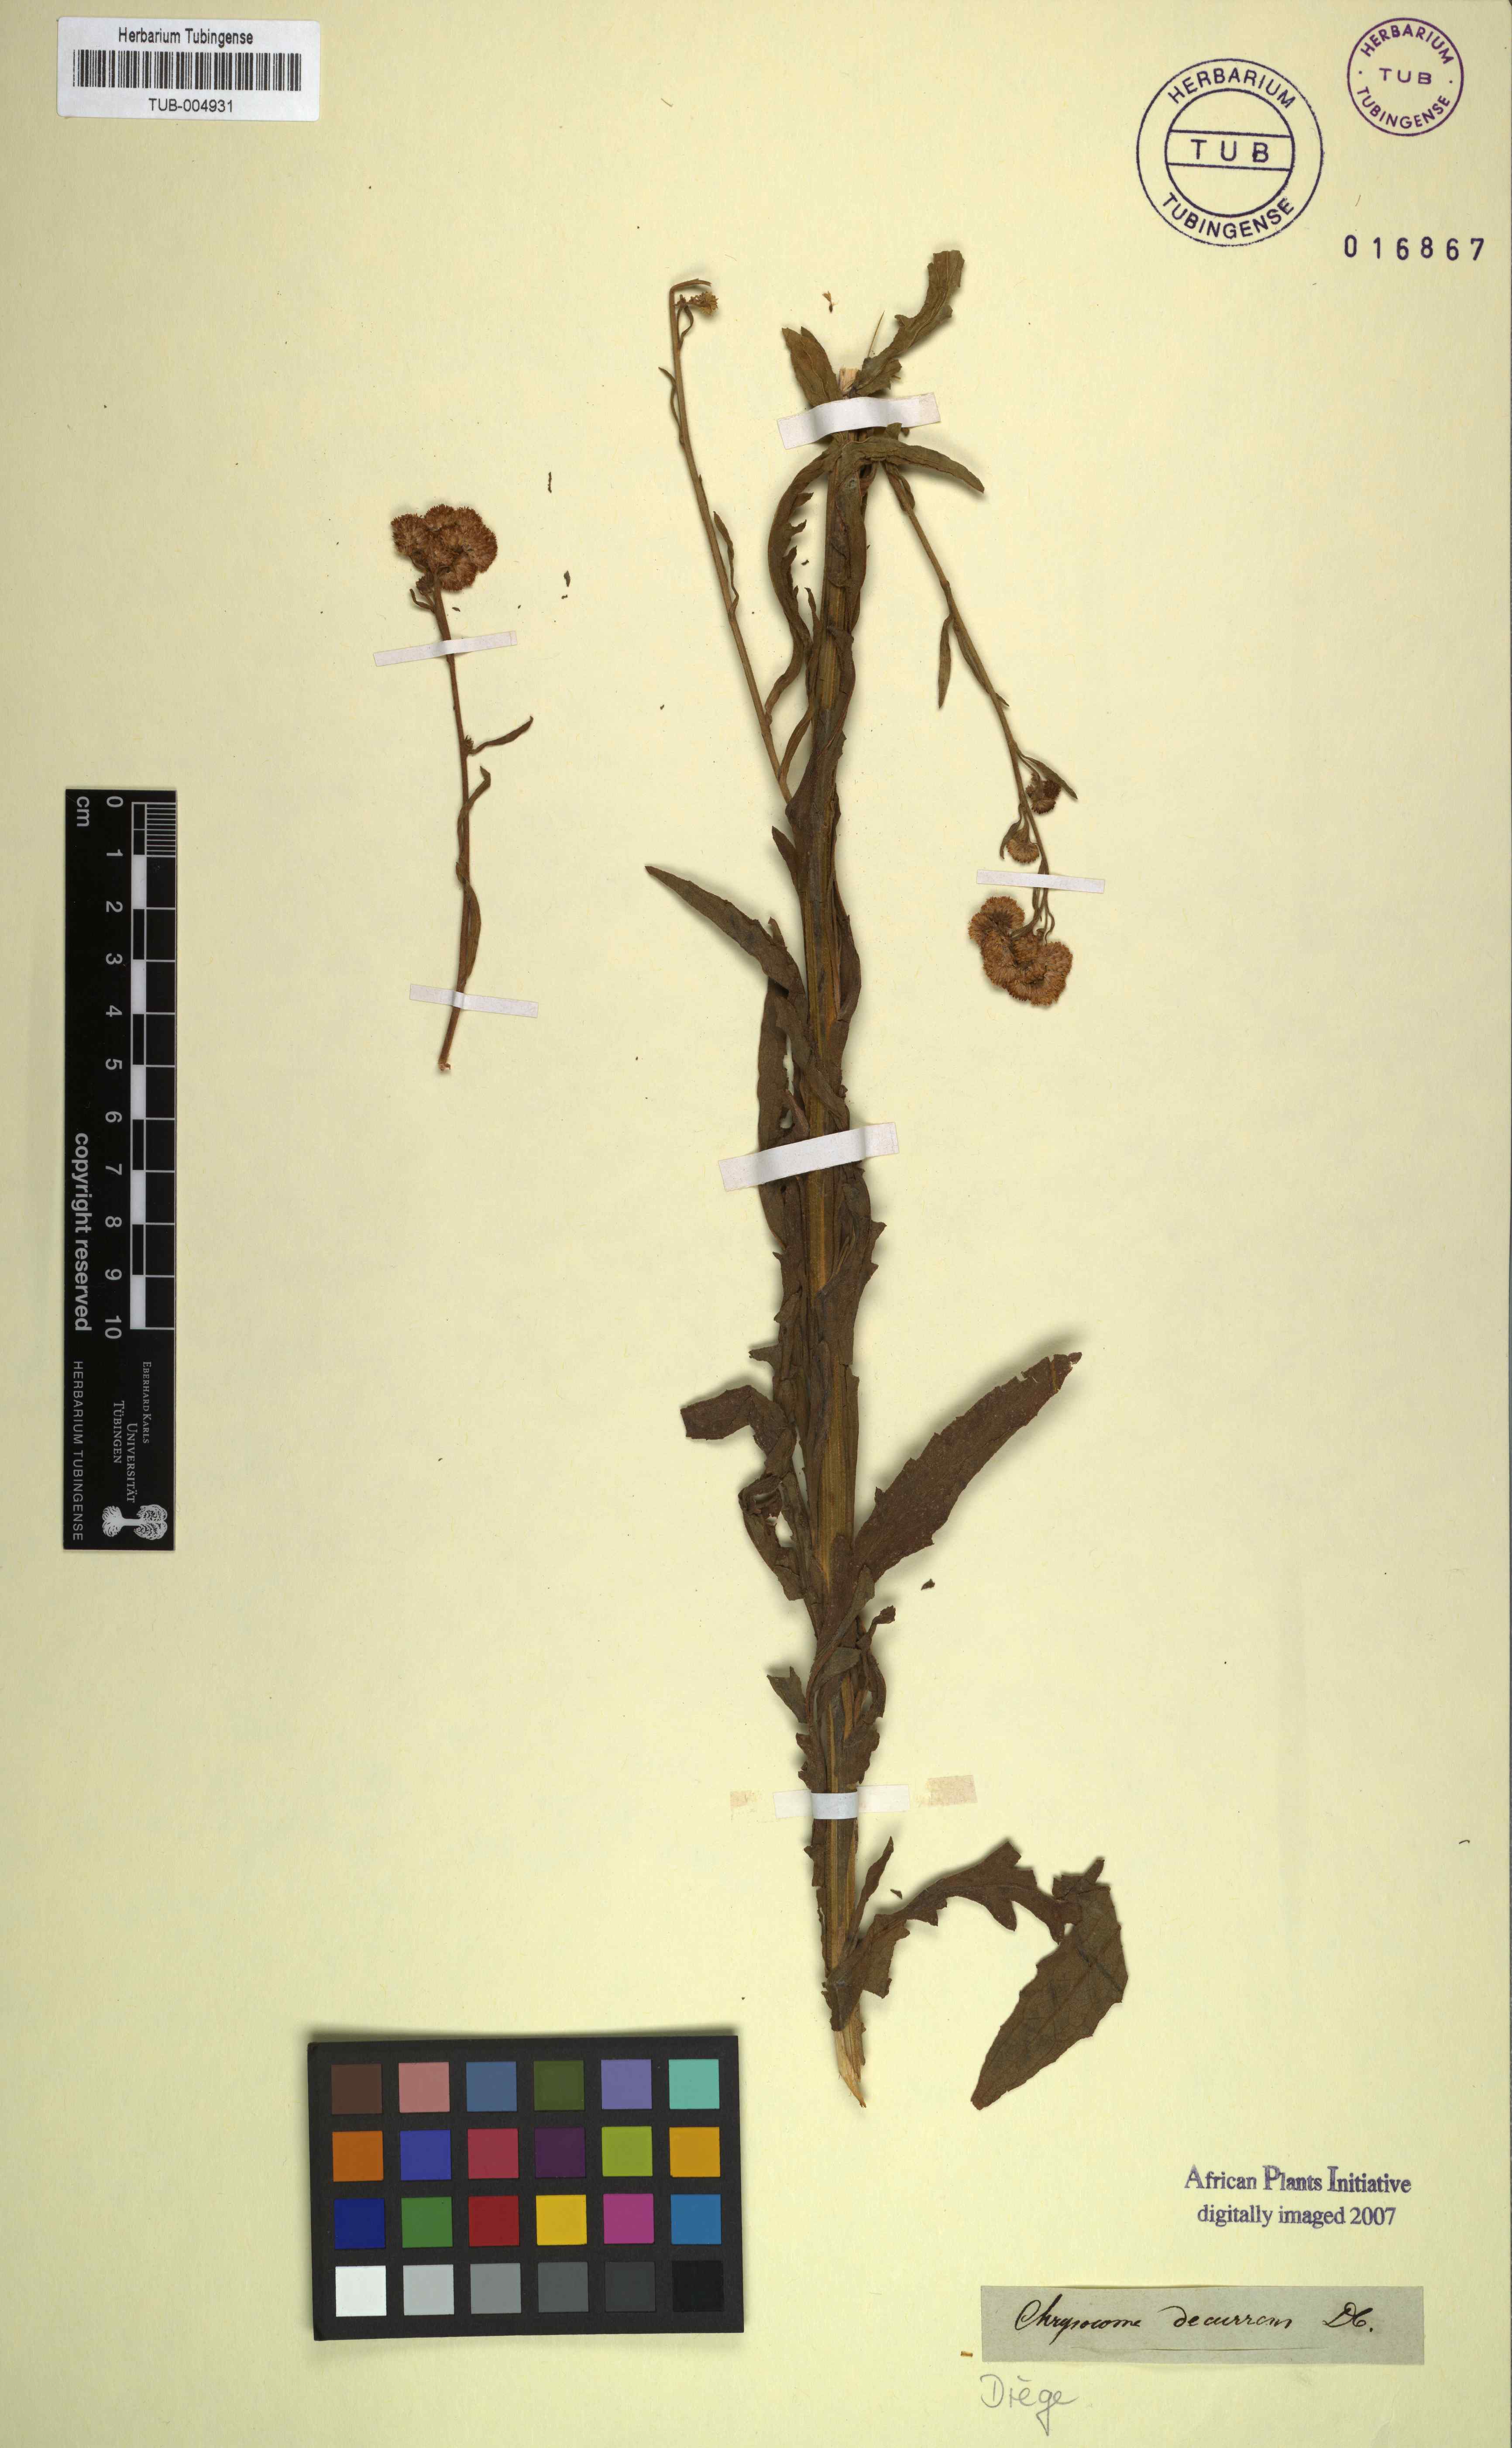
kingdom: Plantae
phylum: Tracheophyta
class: Magnoliopsida
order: Asterales
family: Asteraceae
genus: Heteromma
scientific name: Heteromma decurrens
